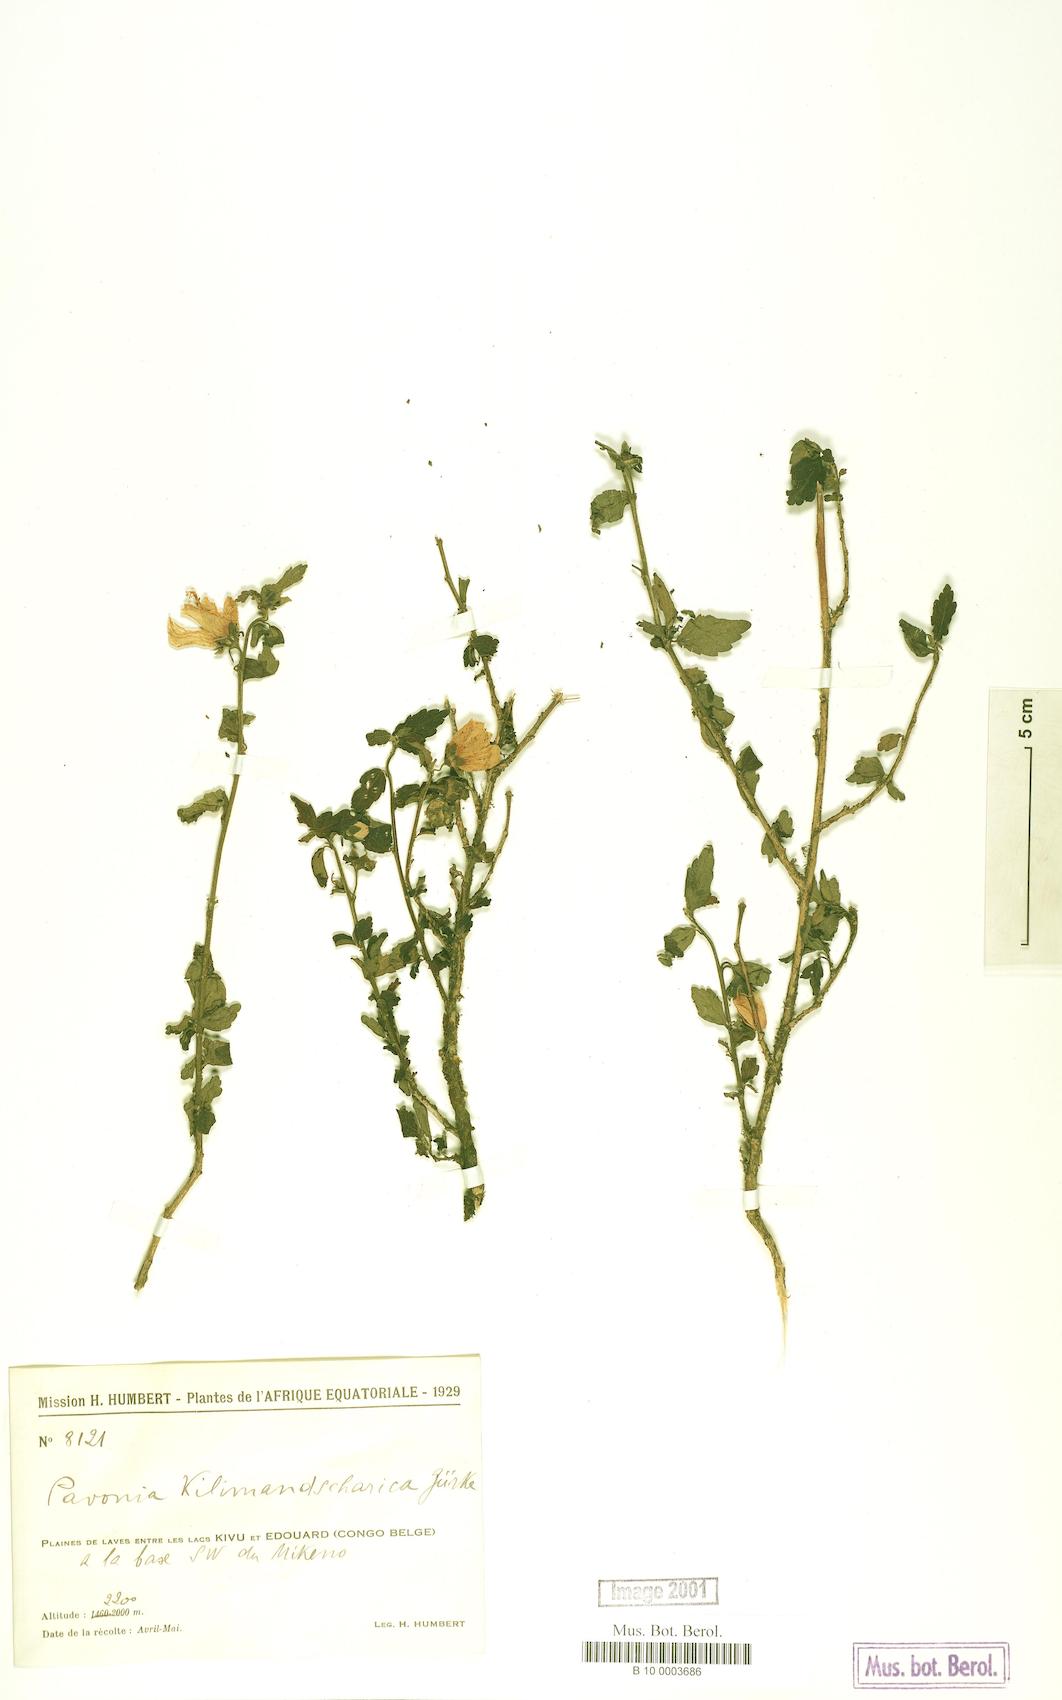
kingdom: Plantae
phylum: Tracheophyta
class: Magnoliopsida
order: Malvales
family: Malvaceae
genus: Pavonia
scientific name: Pavonia
